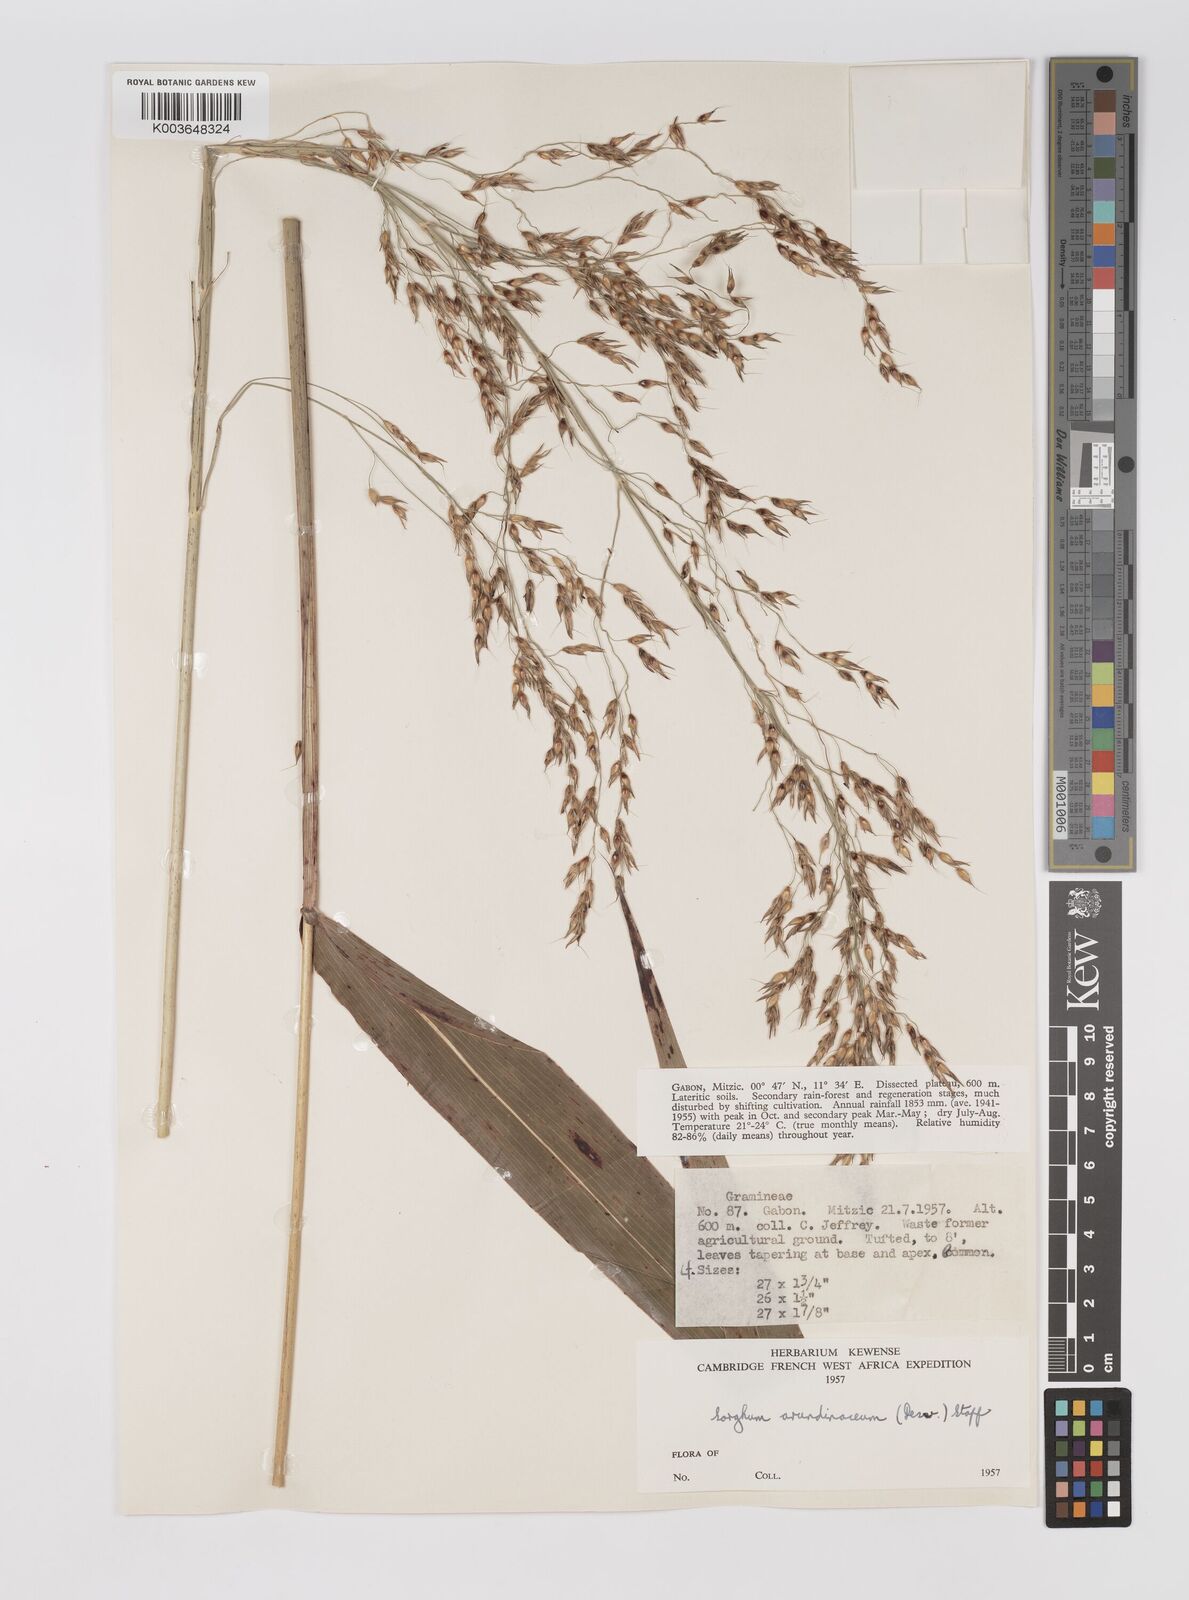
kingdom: Plantae
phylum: Tracheophyta
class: Liliopsida
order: Poales
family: Poaceae
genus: Sorghum
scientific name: Sorghum arundinaceum
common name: Sorghum
